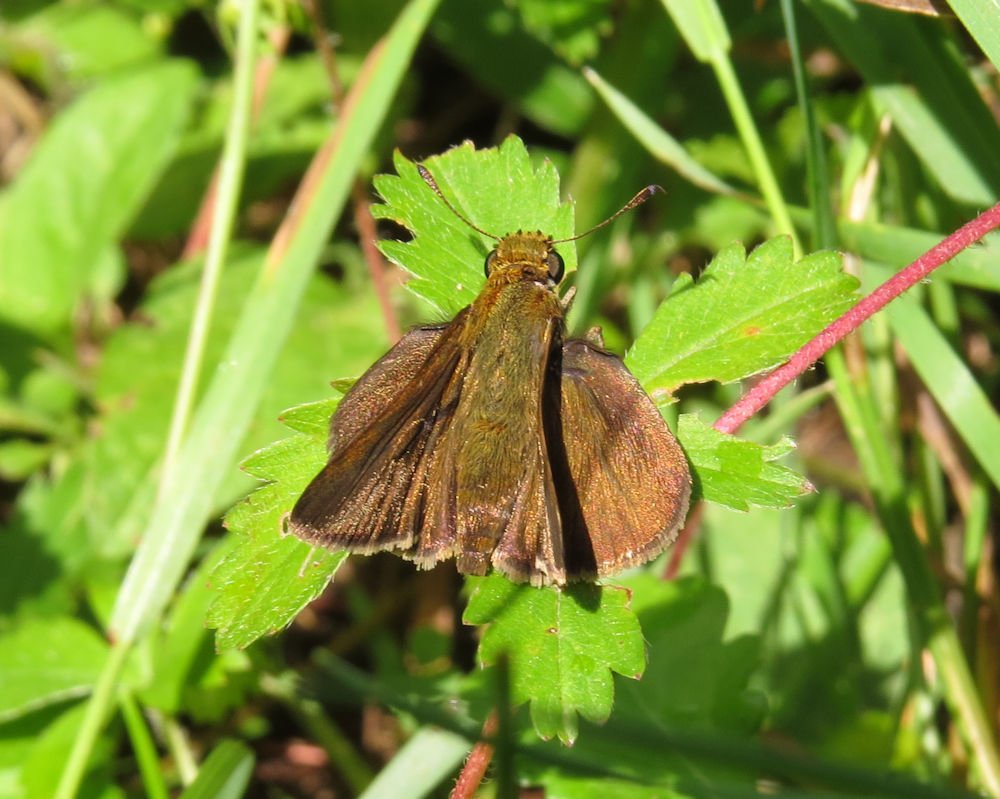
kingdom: Animalia
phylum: Arthropoda
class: Insecta
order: Lepidoptera
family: Hesperiidae
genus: Euphyes
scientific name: Euphyes vestris
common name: Dun Skipper
